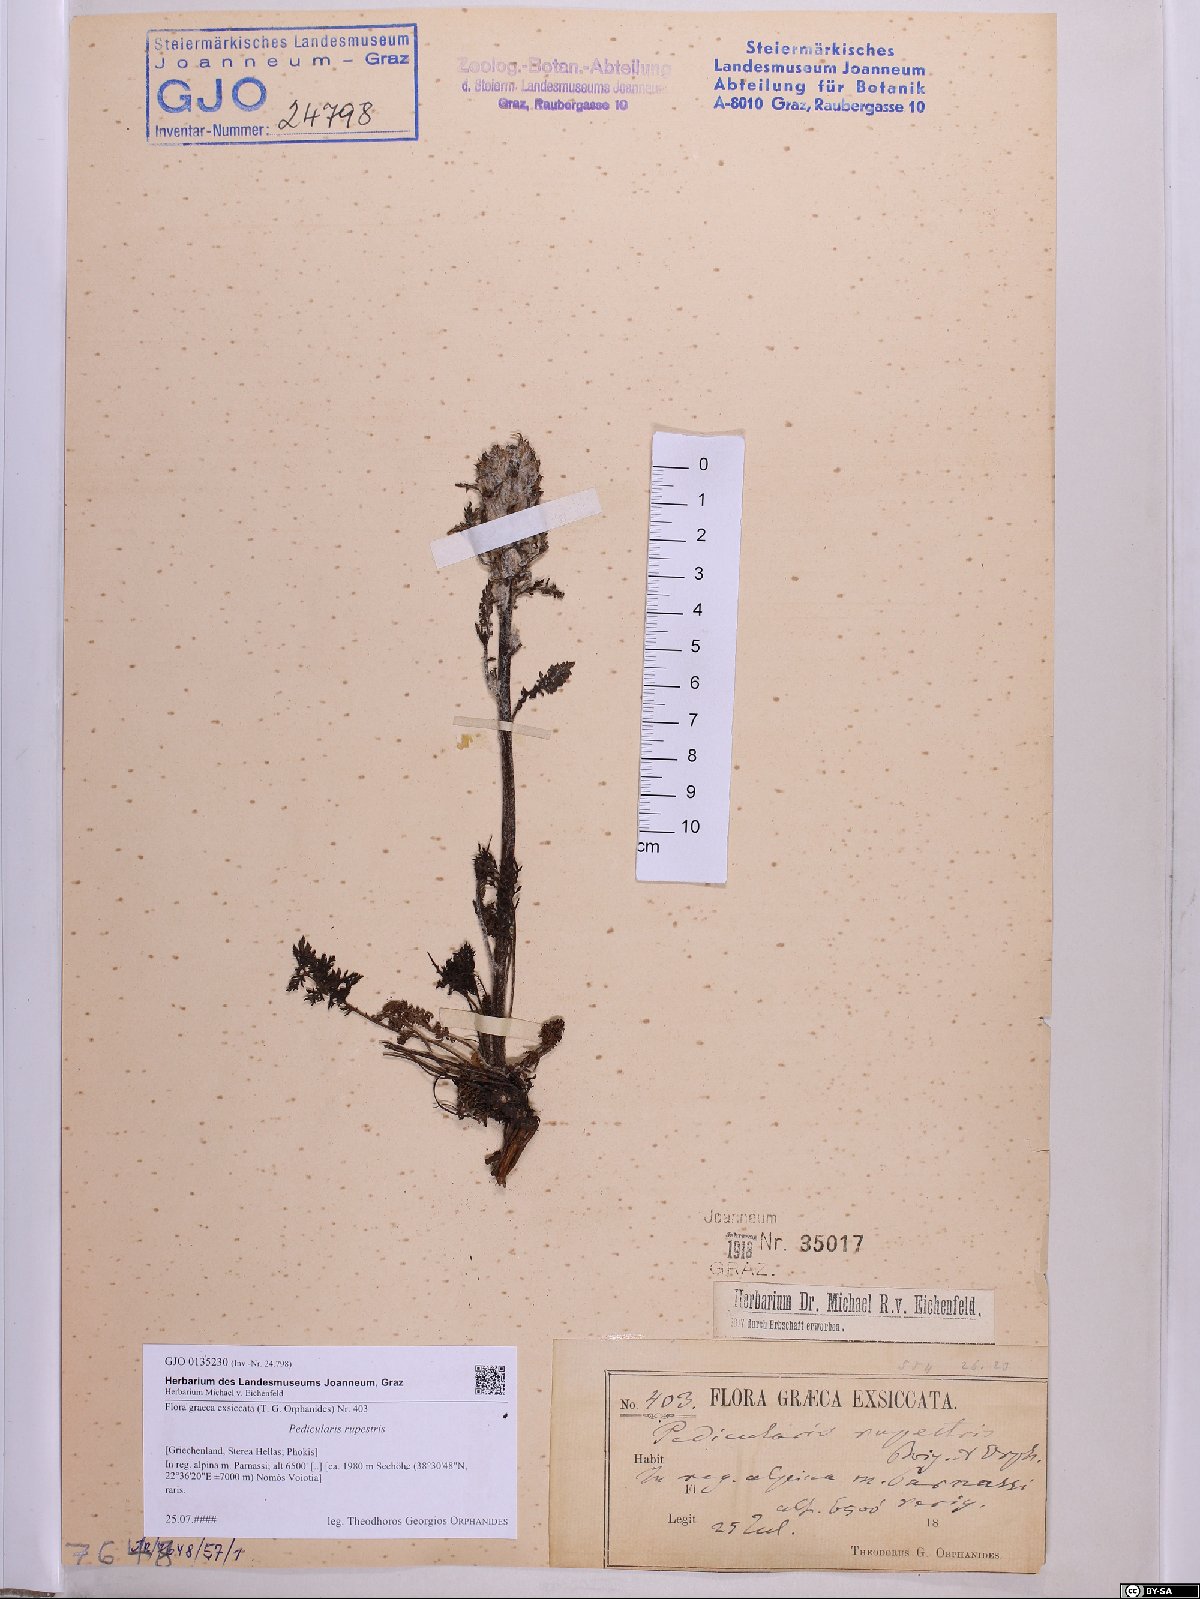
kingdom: Plantae
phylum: Tracheophyta
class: Magnoliopsida
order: Lamiales
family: Orobanchaceae
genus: Pedicularis
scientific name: Pedicularis graeca
